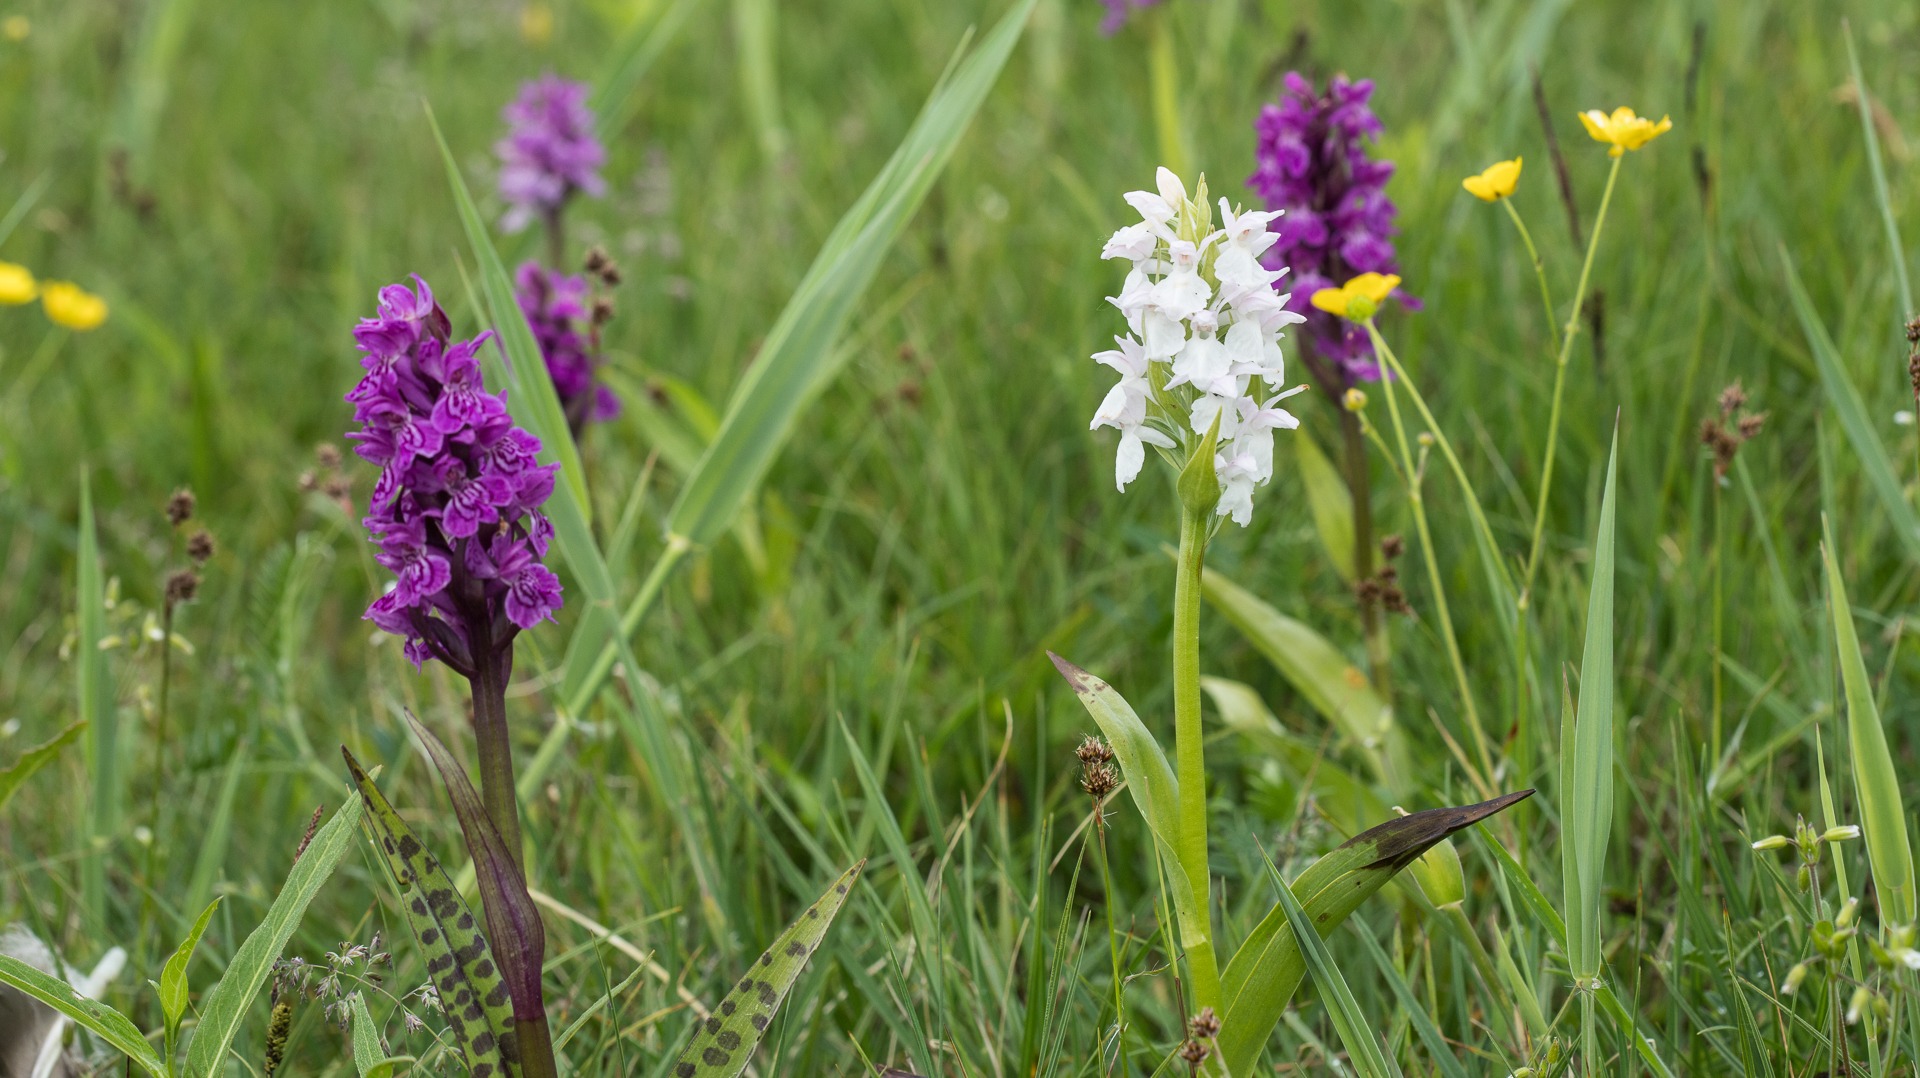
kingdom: Plantae
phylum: Tracheophyta
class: Liliopsida
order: Asparagales
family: Orchidaceae
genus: Dactylorhiza
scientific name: Dactylorhiza majalis
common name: Maj-gøgeurt
